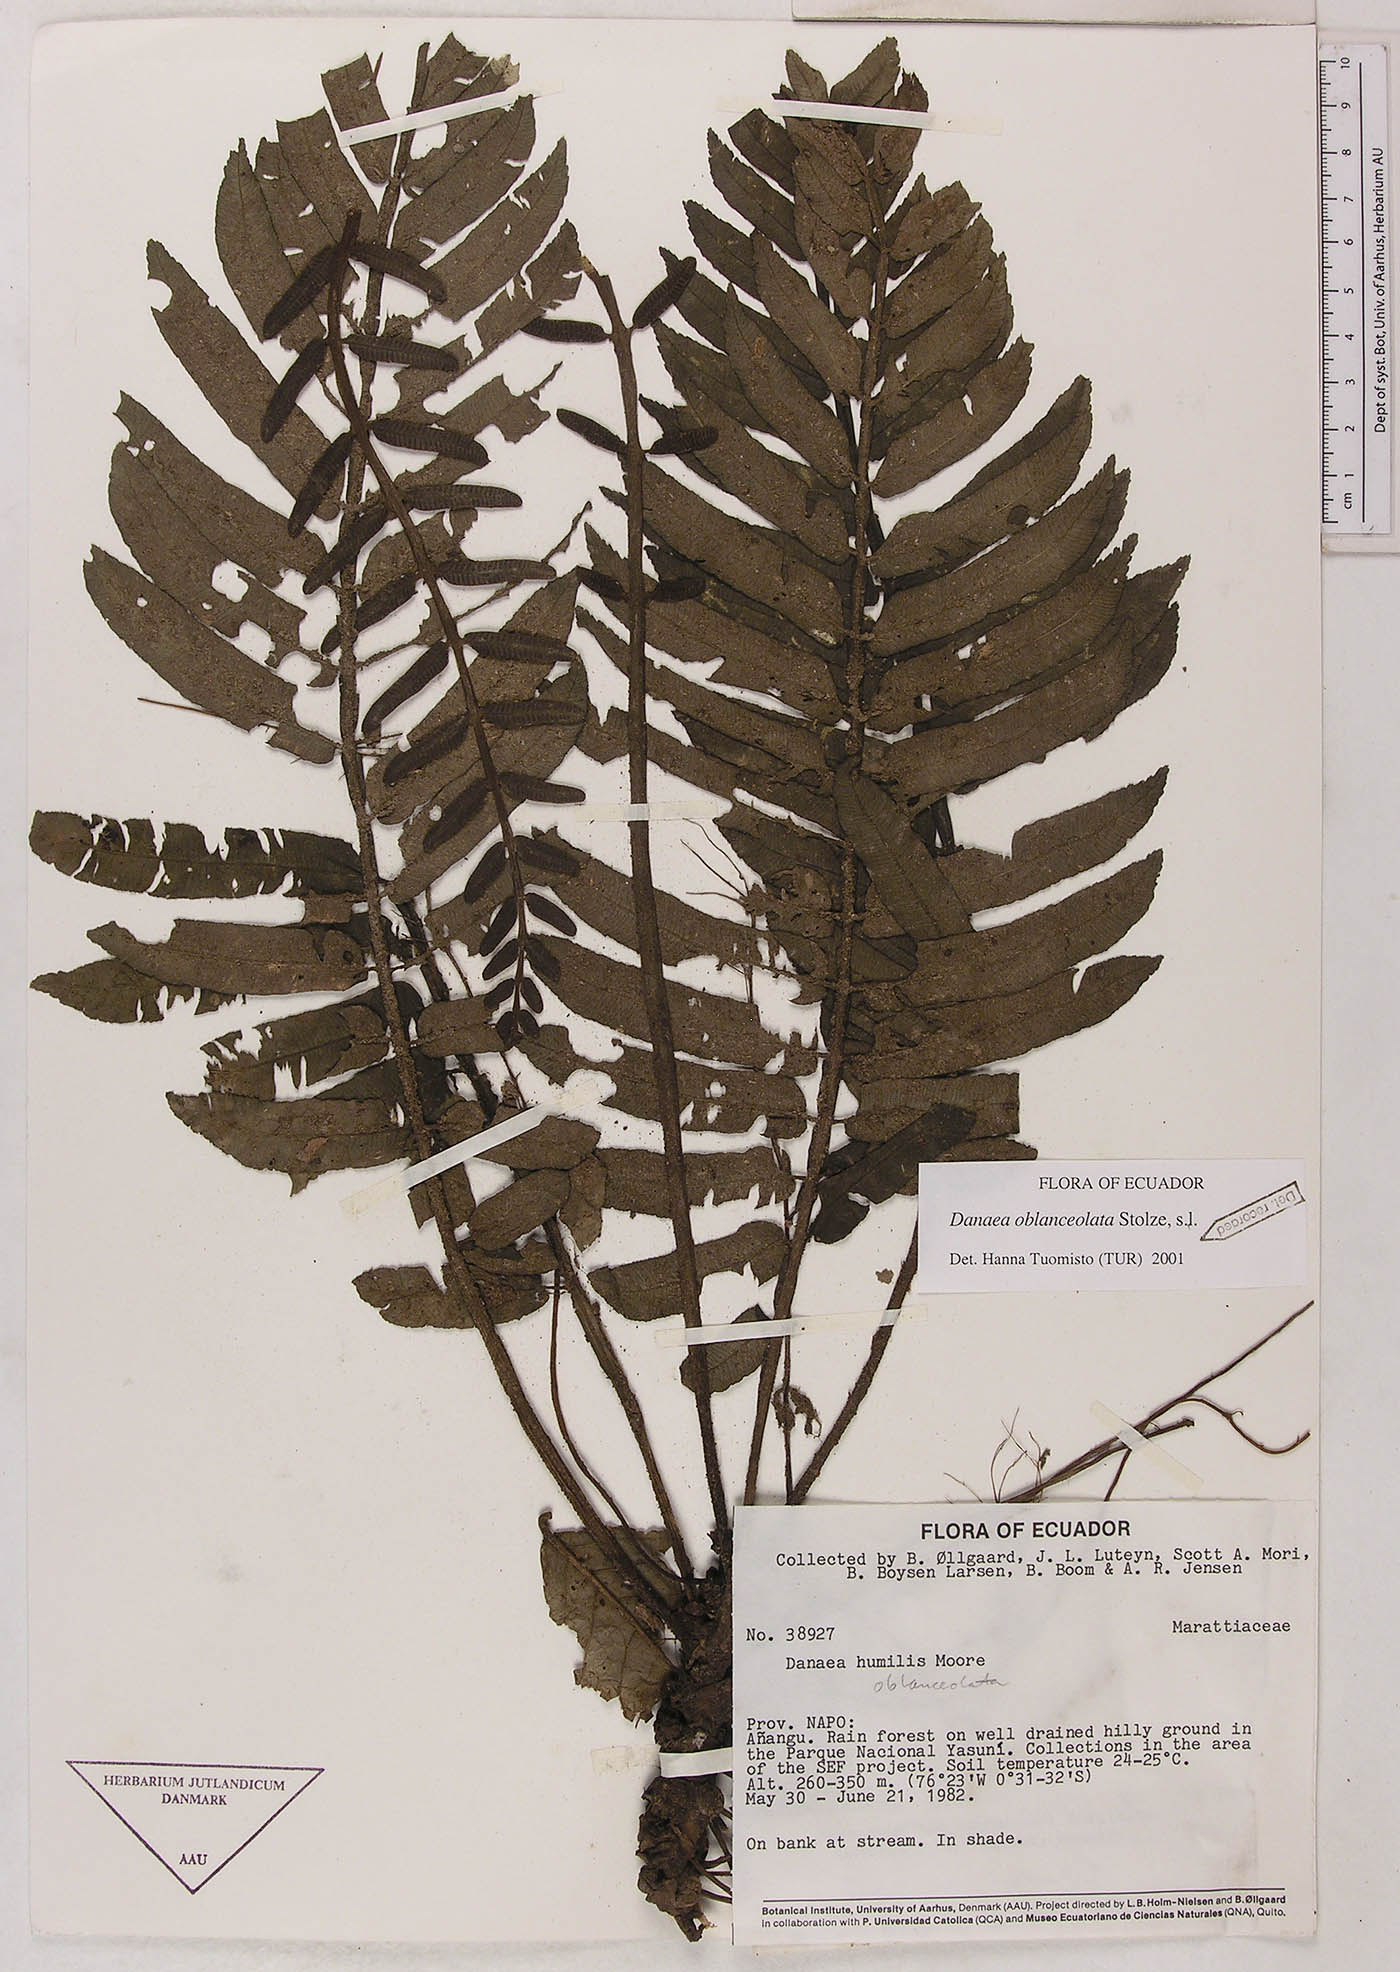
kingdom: Plantae
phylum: Tracheophyta
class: Polypodiopsida
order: Marattiales
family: Marattiaceae
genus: Danaea
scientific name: Danaea oblanceolata
